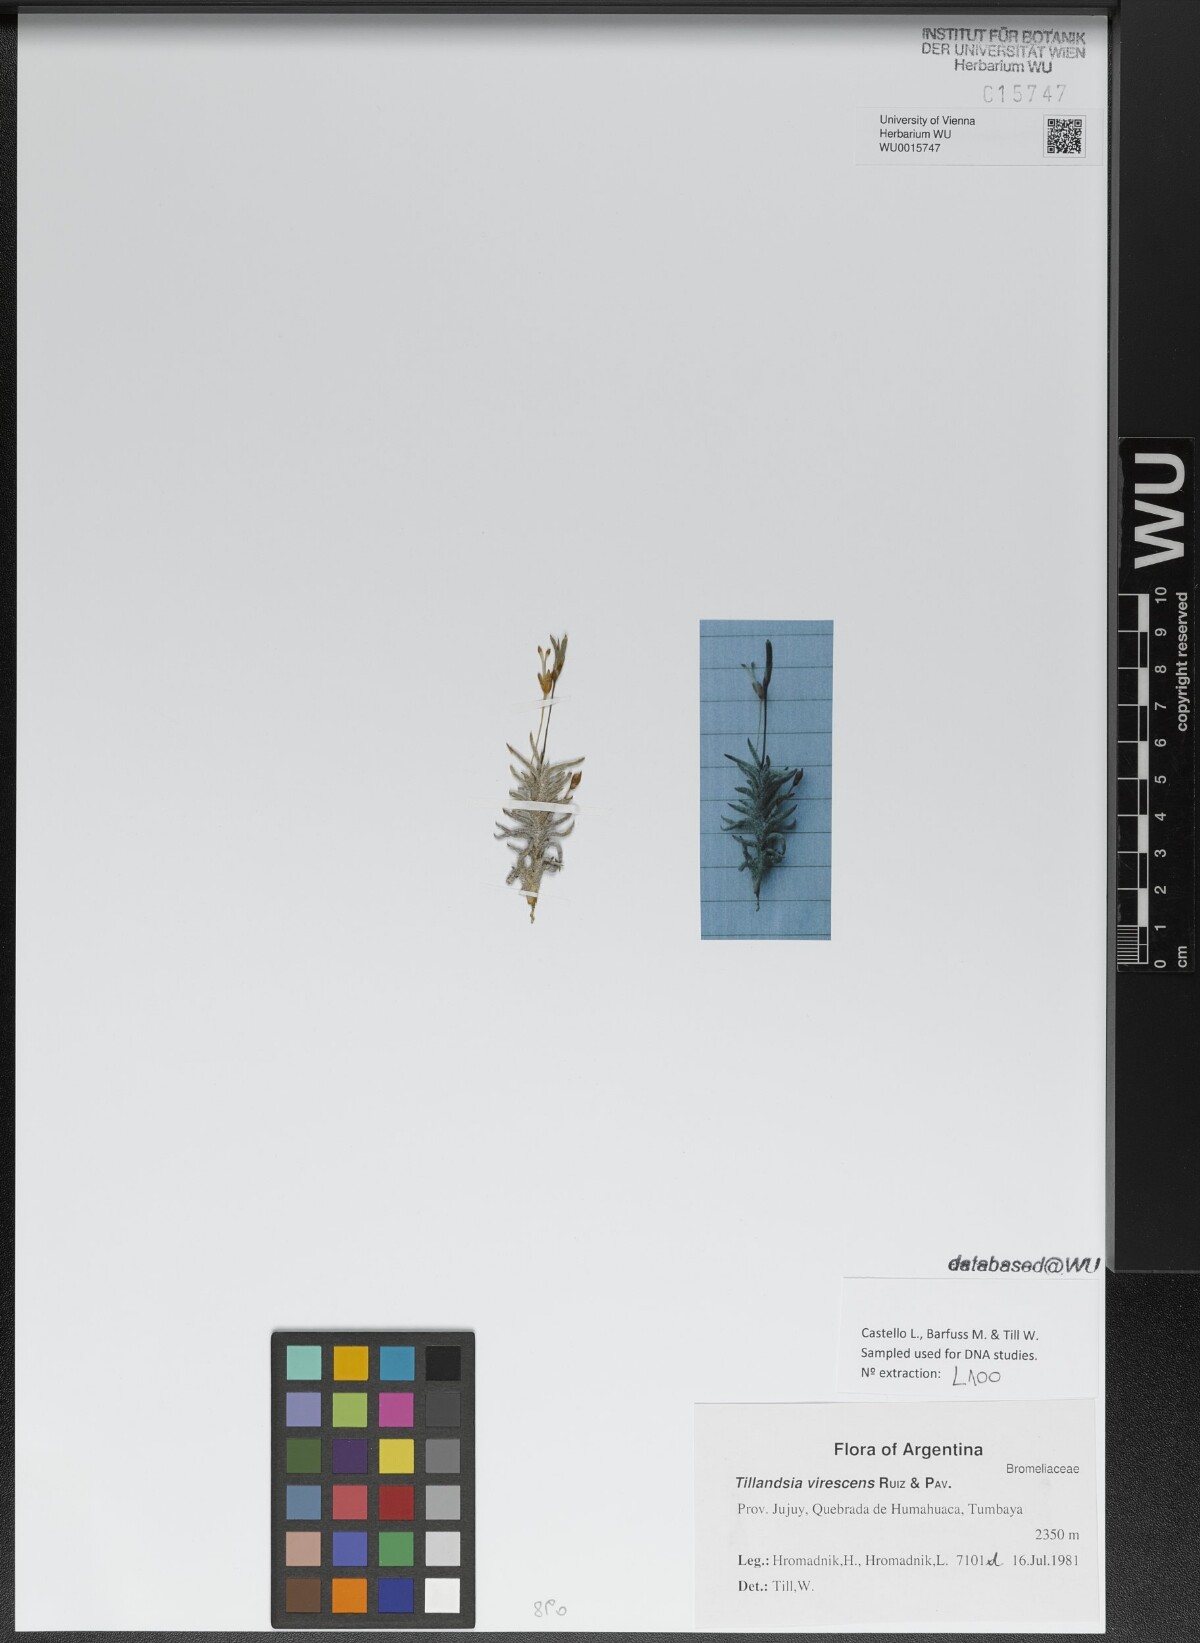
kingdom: Plantae
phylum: Tracheophyta
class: Liliopsida
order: Poales
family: Bromeliaceae
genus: Tillandsia
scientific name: Tillandsia virescens
